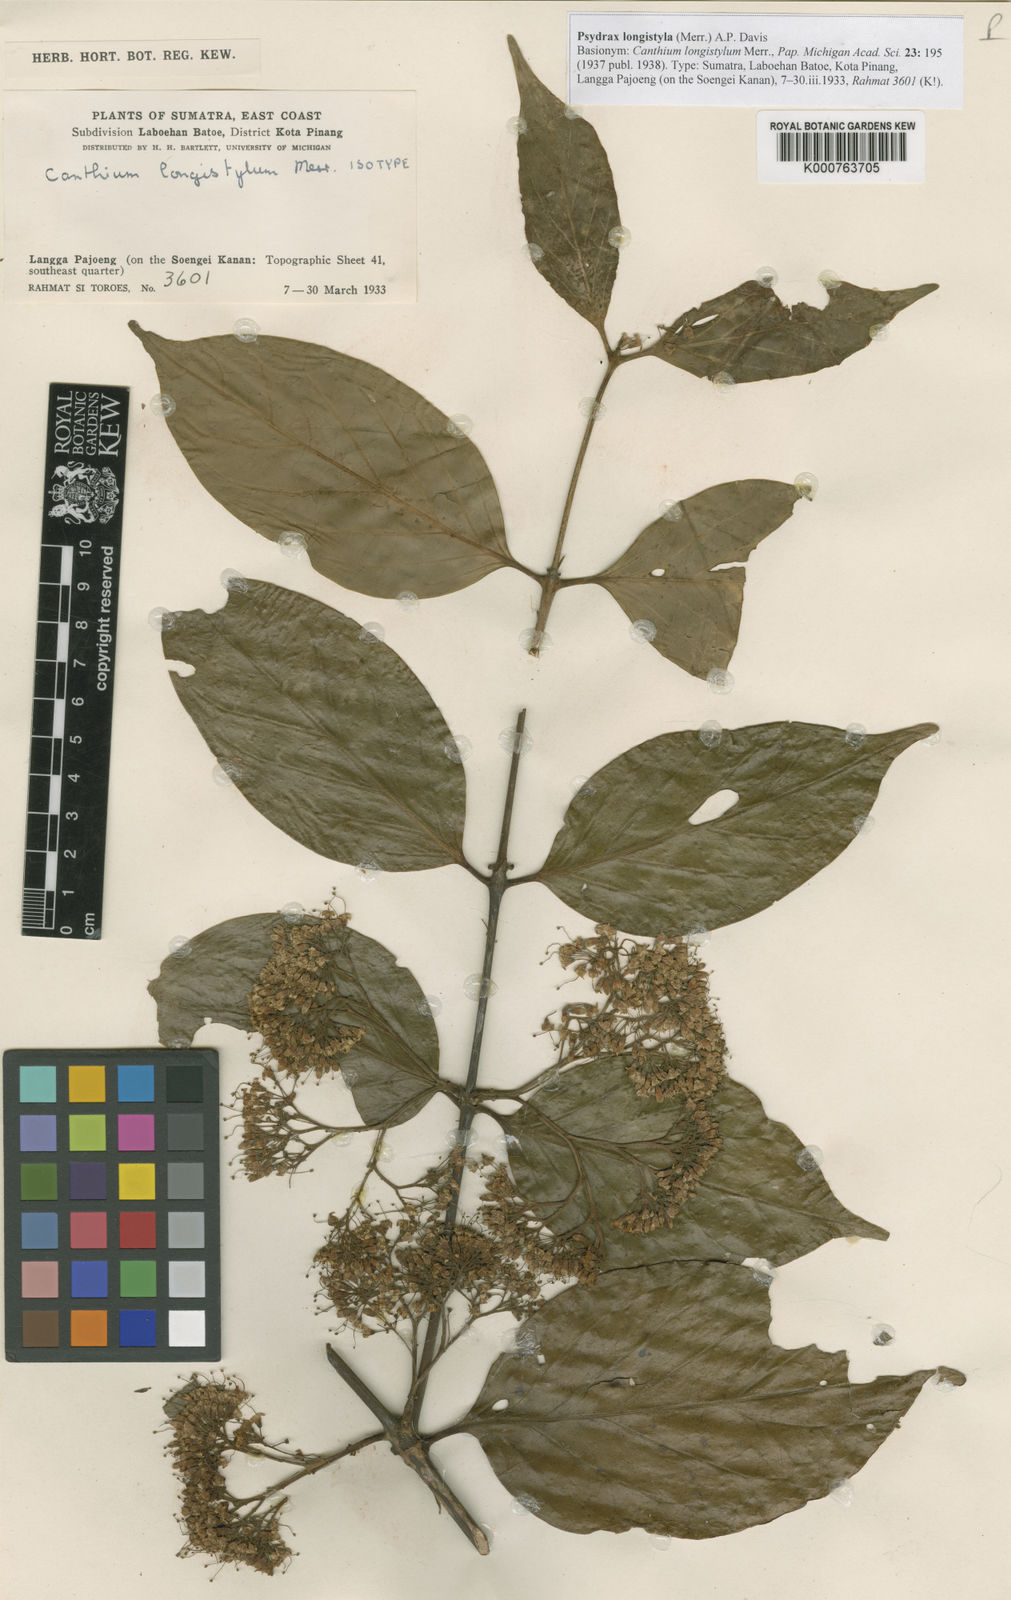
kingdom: Plantae
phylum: Tracheophyta
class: Magnoliopsida
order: Gentianales
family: Rubiaceae
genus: Psydrax
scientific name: Psydrax longistylus
